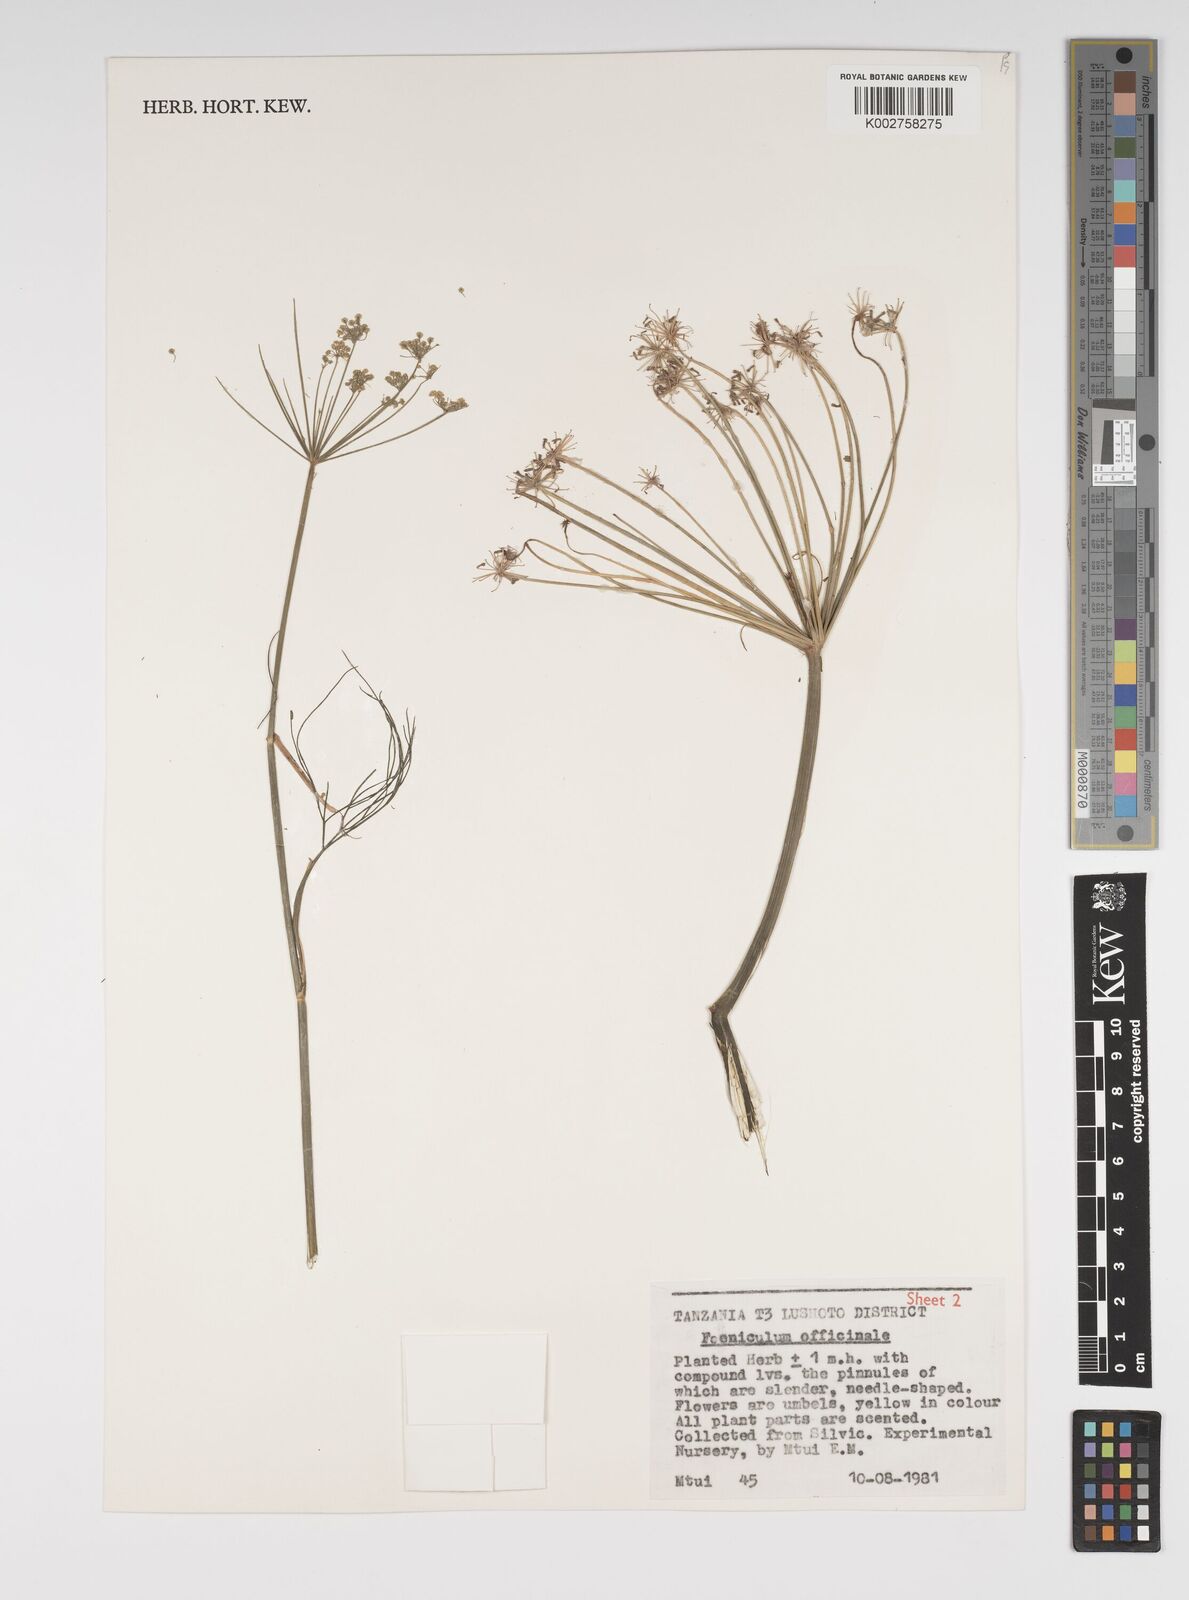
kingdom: Plantae
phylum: Tracheophyta
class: Magnoliopsida
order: Apiales
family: Apiaceae
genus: Foeniculum
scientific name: Foeniculum vulgare
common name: Fennel
